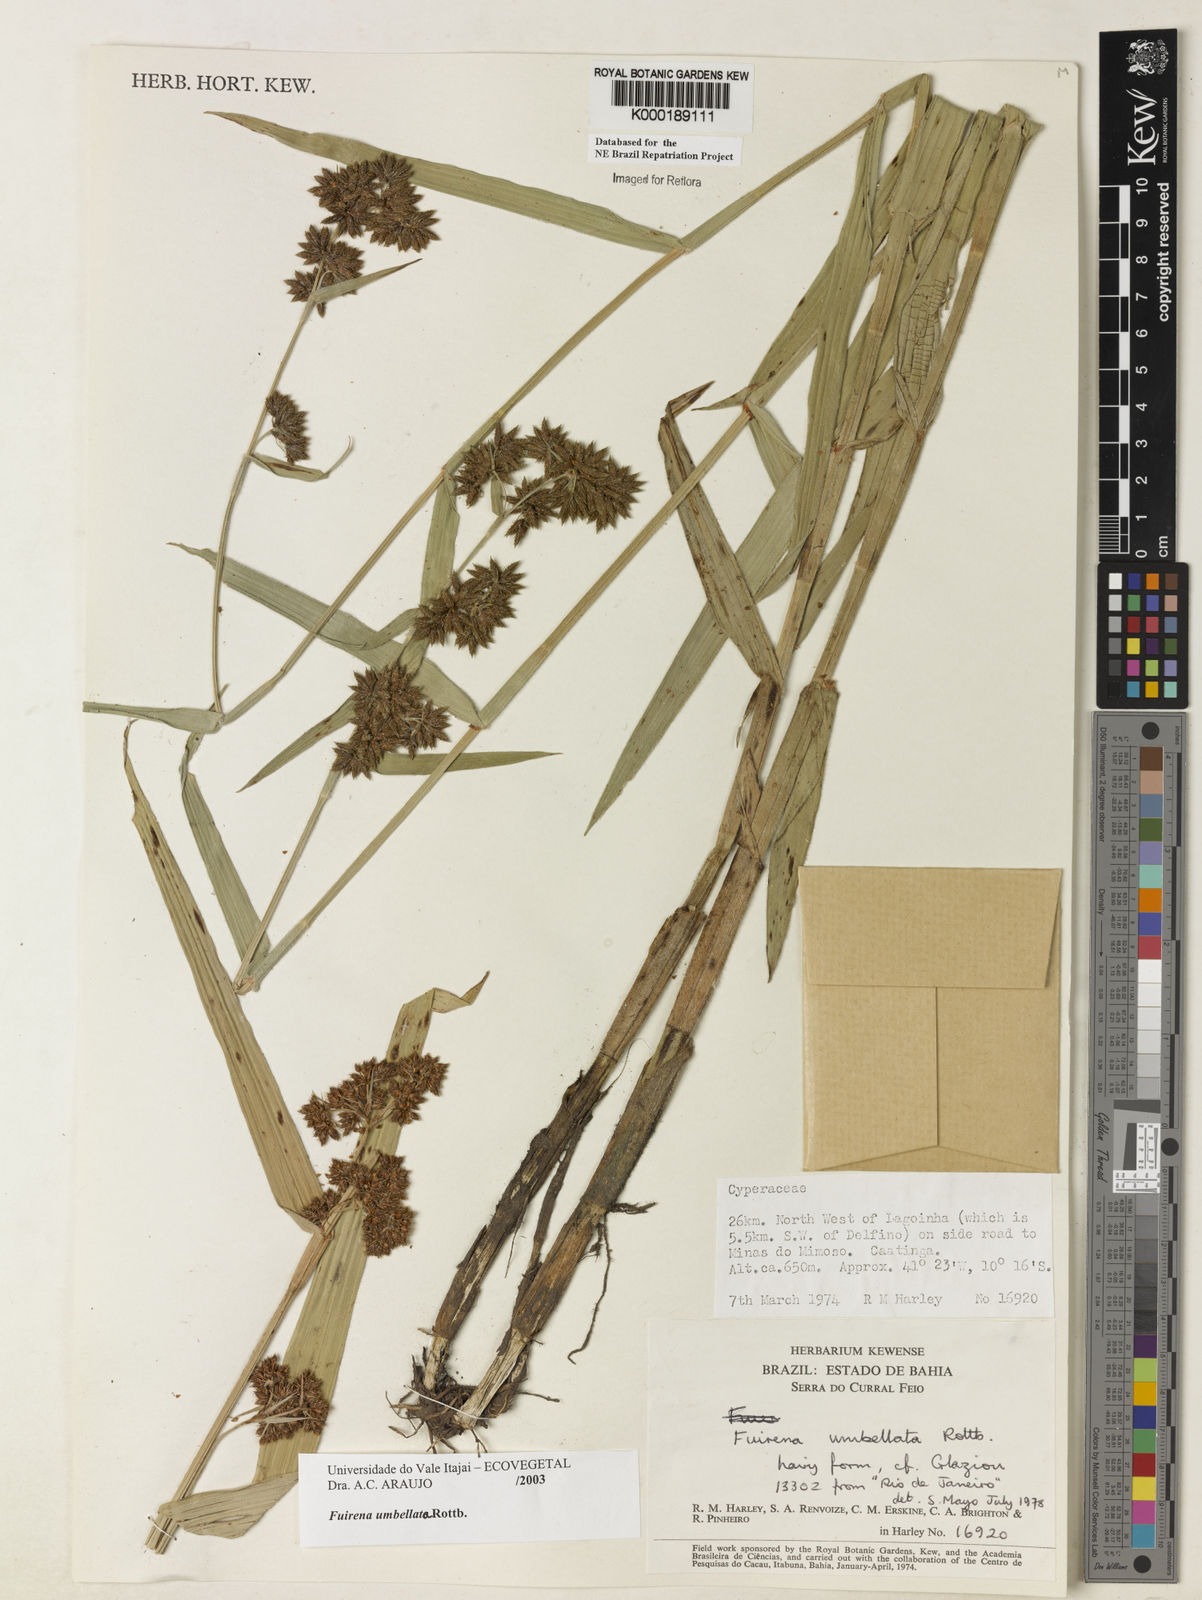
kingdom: Plantae
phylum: Tracheophyta
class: Liliopsida
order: Poales
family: Cyperaceae
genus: Fuirena
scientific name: Fuirena umbellata
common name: Yefen
